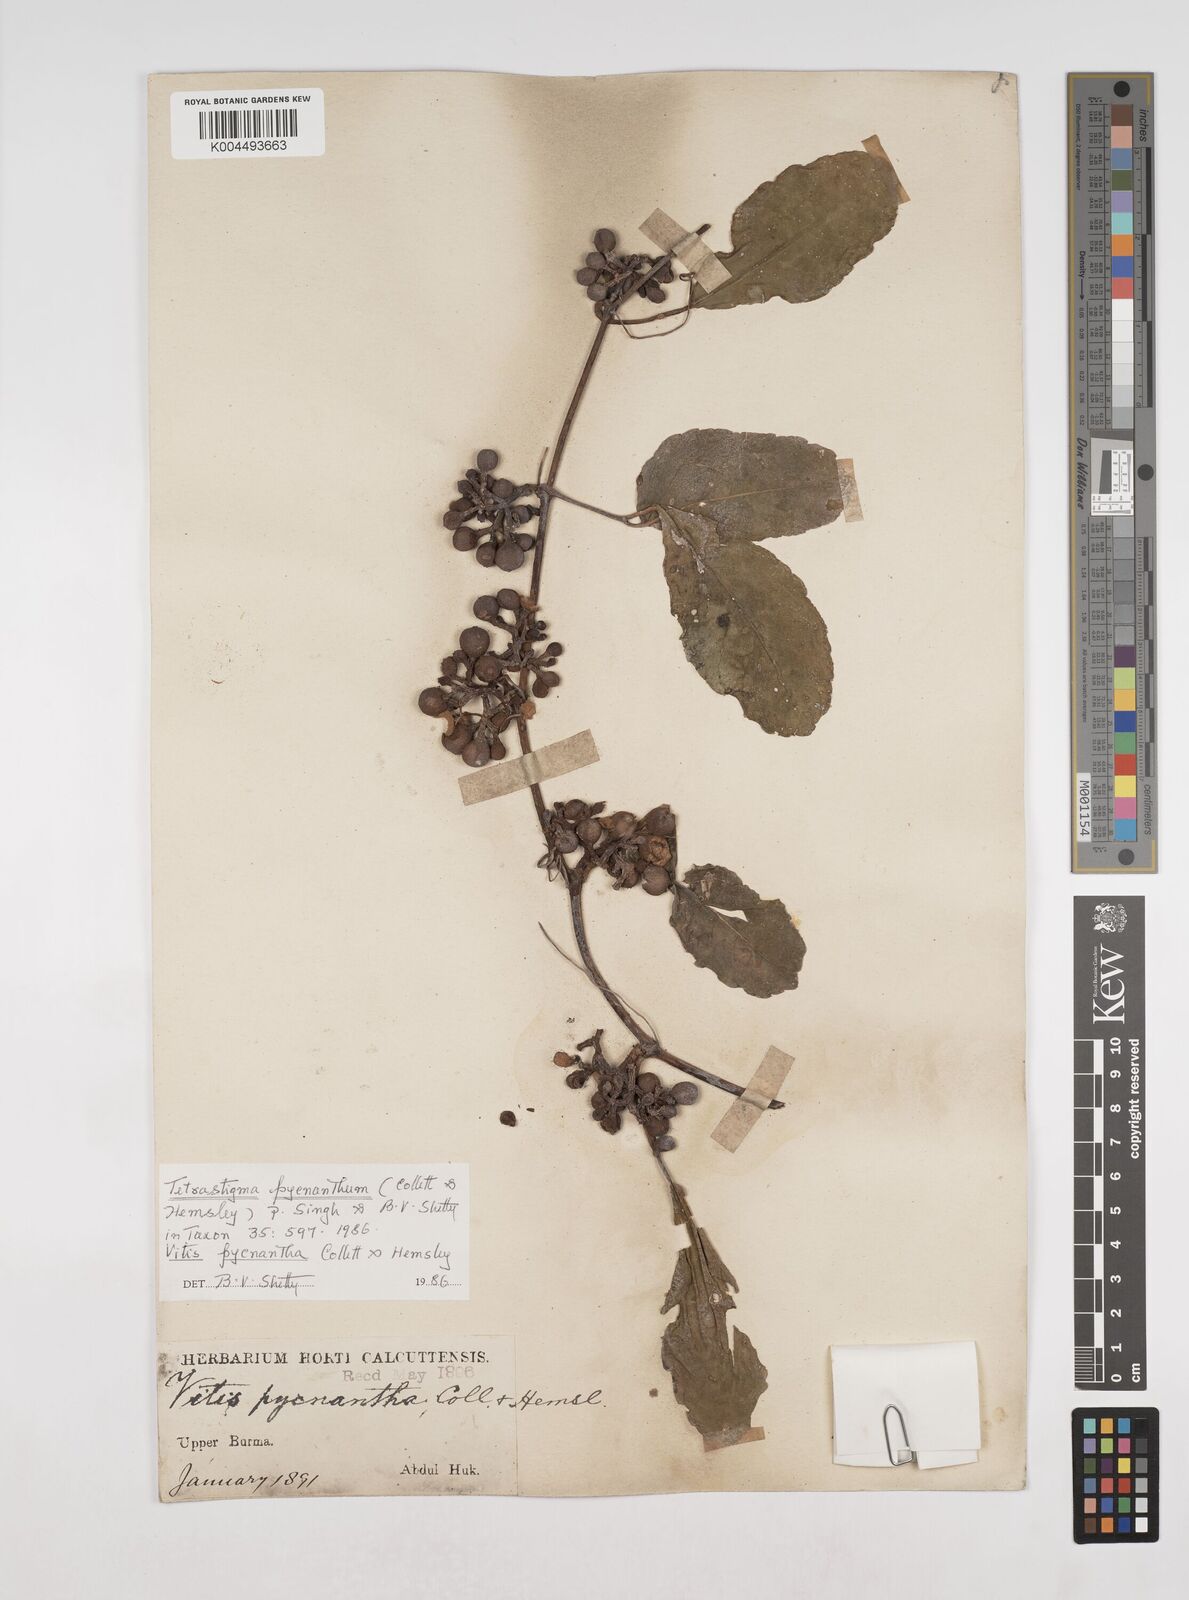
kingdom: Plantae
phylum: Tracheophyta
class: Magnoliopsida
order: Vitales
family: Vitaceae
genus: Tetrastigma
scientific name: Tetrastigma pycnanthum
